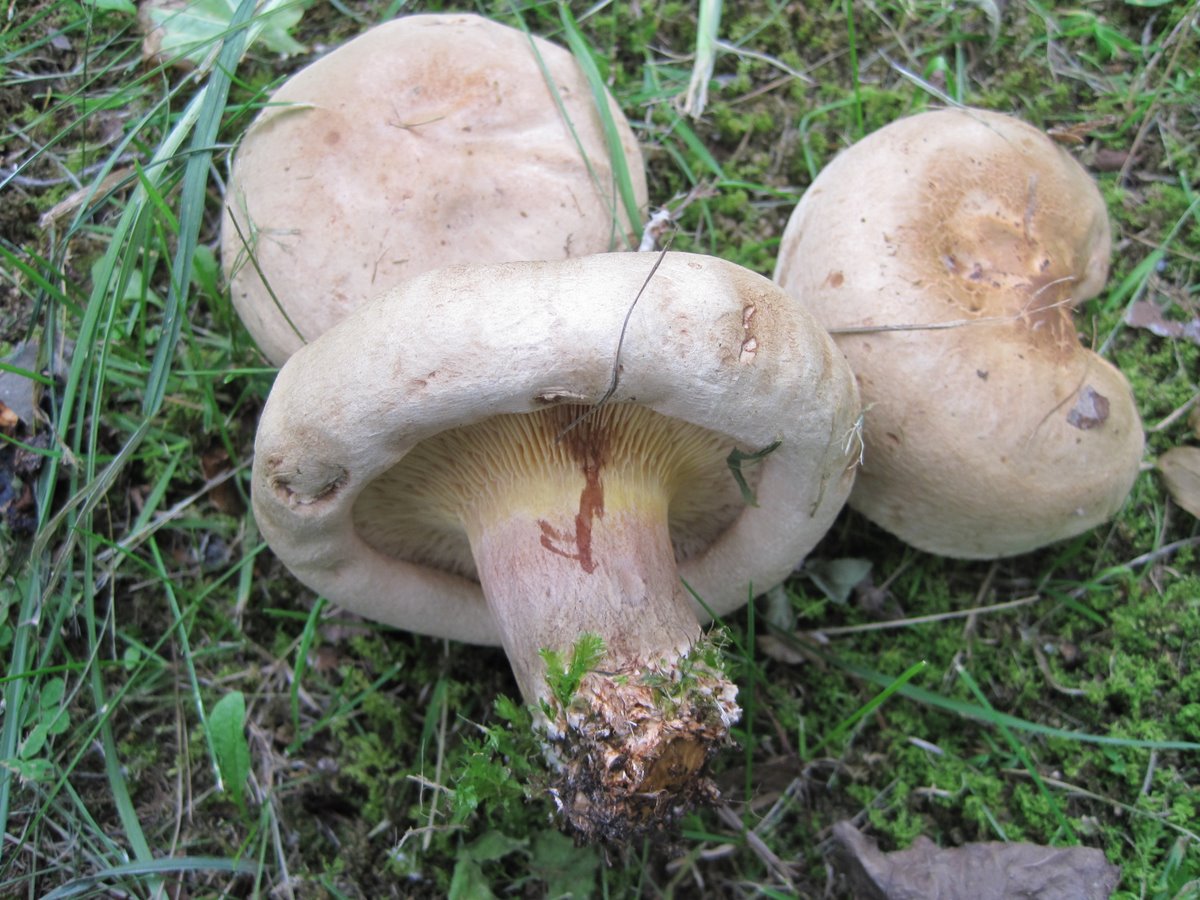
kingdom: Fungi
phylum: Basidiomycota
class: Agaricomycetes
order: Boletales
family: Paxillaceae
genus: Paxillus
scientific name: Paxillus
